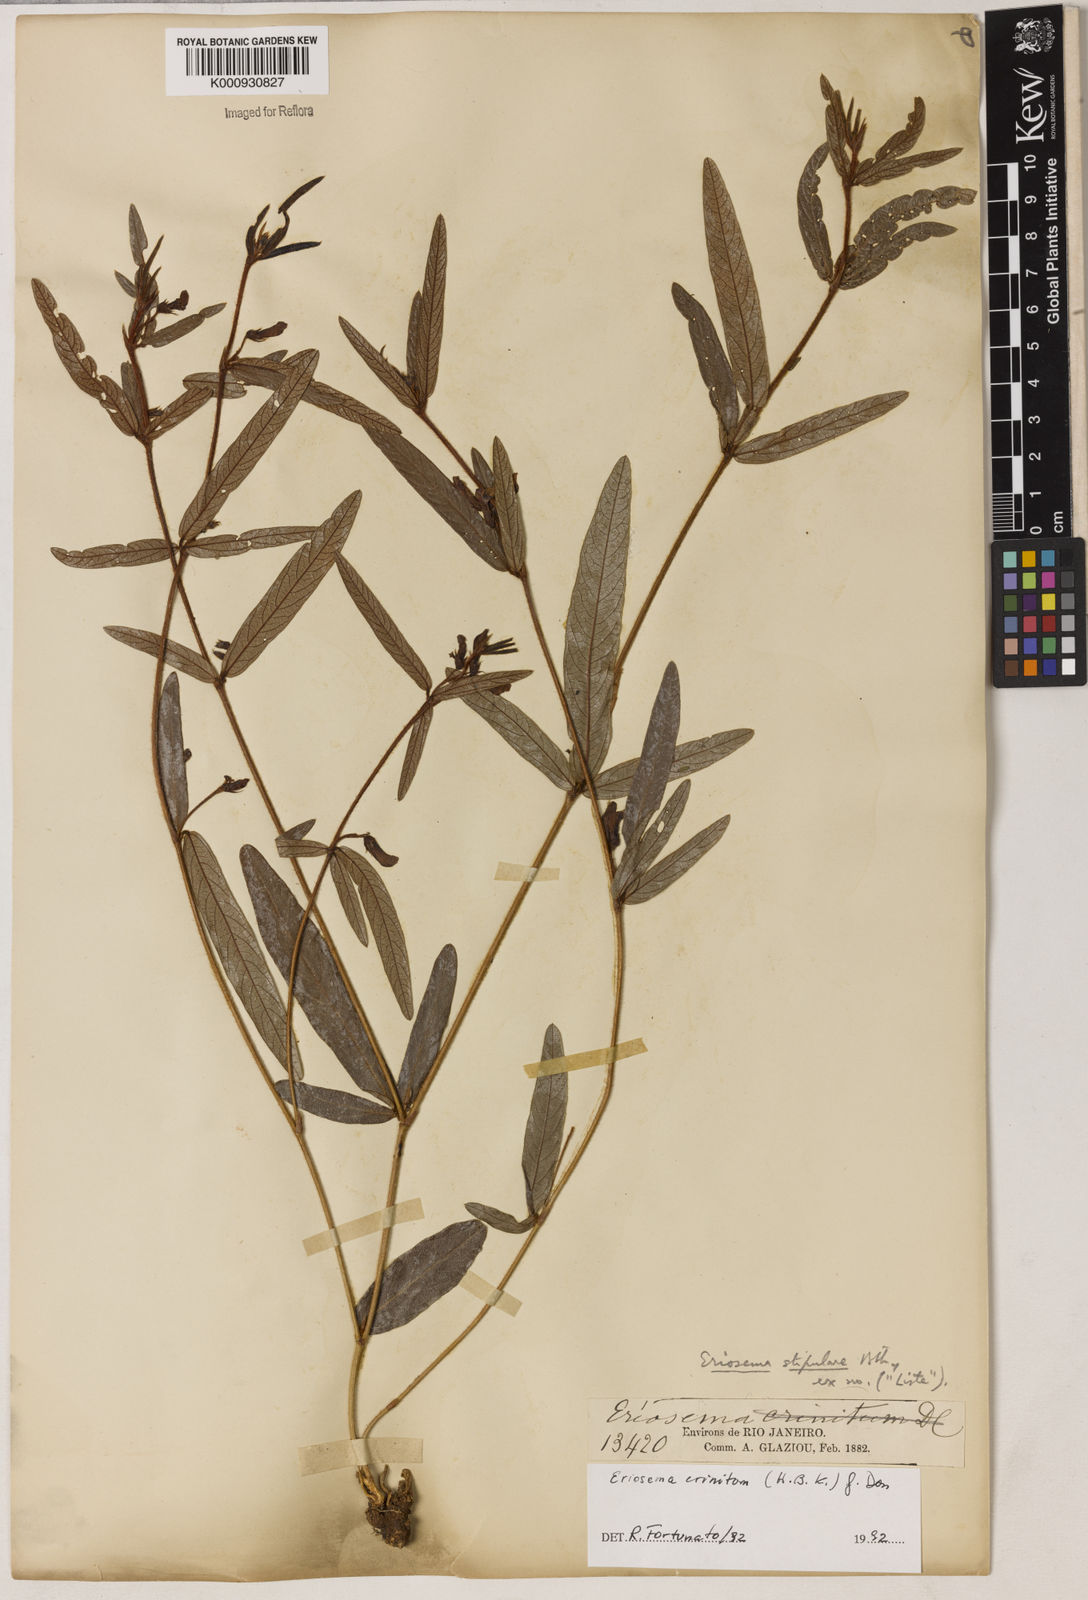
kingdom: Plantae
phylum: Tracheophyta
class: Magnoliopsida
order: Fabales
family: Fabaceae
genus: Eriosema
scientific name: Eriosema crinitum
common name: Sand pea
